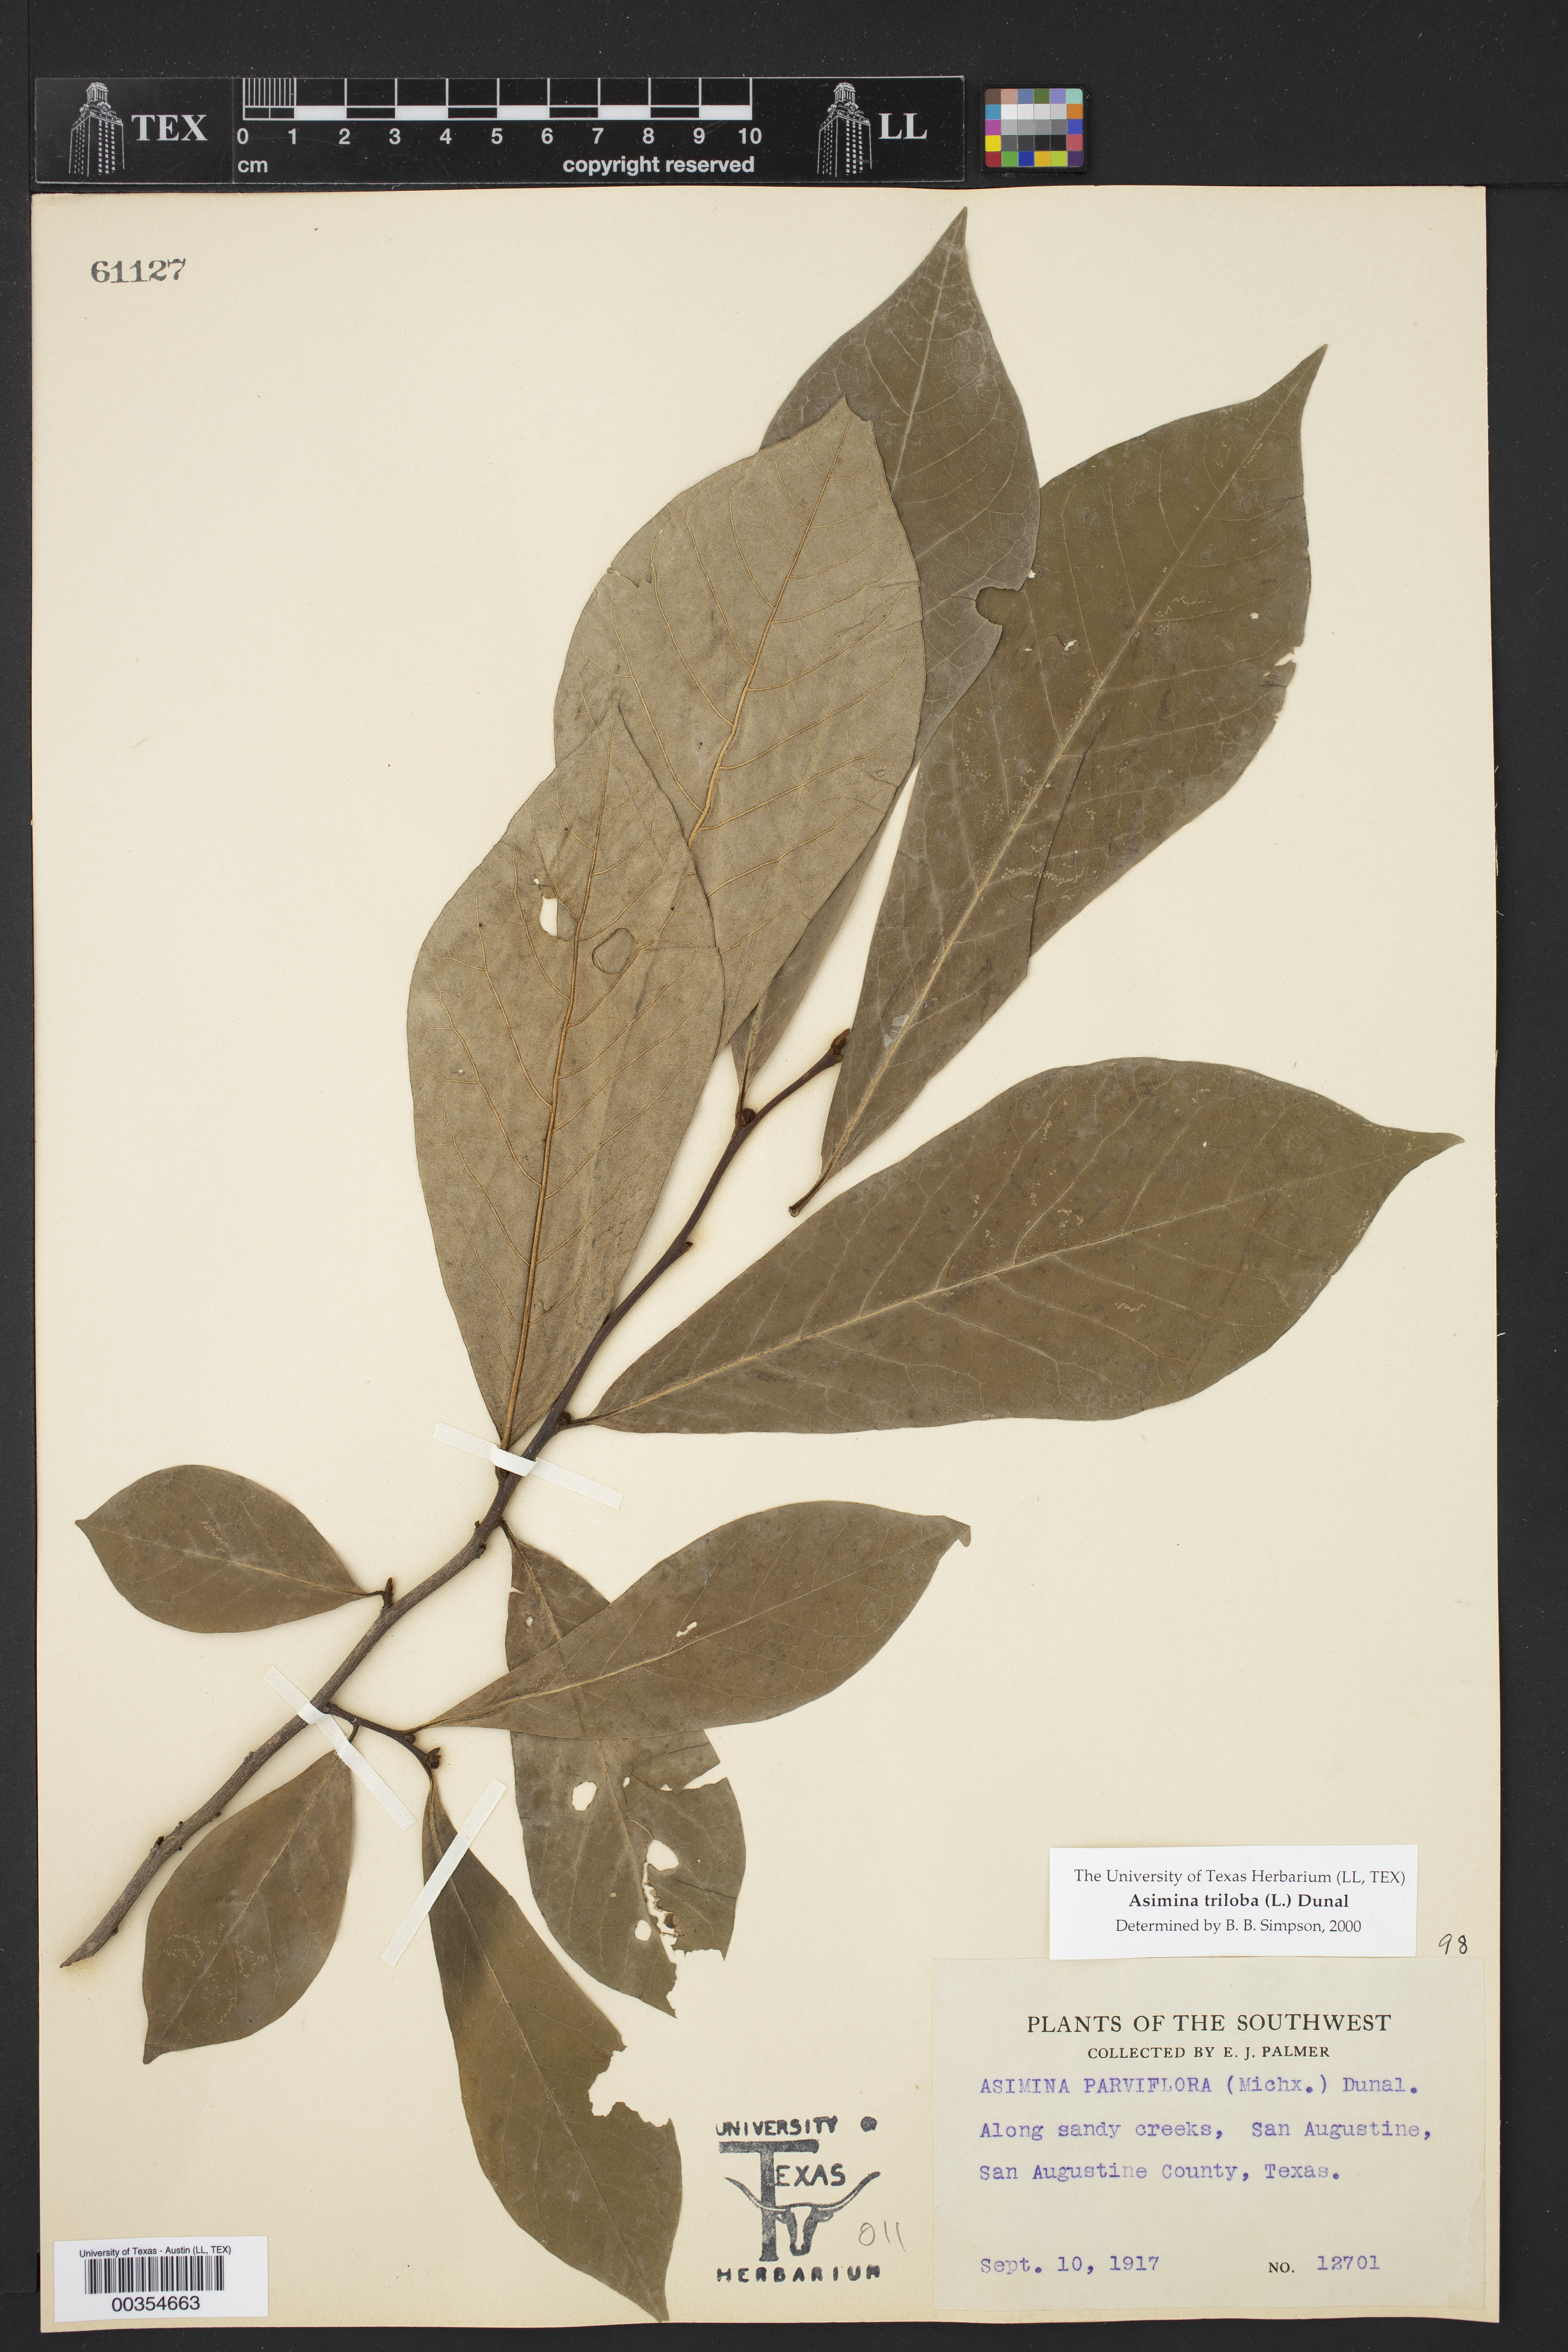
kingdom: Plantae
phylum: Tracheophyta
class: Magnoliopsida
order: Magnoliales
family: Annonaceae
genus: Asimina
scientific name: Asimina triloba
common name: Dog-banana
